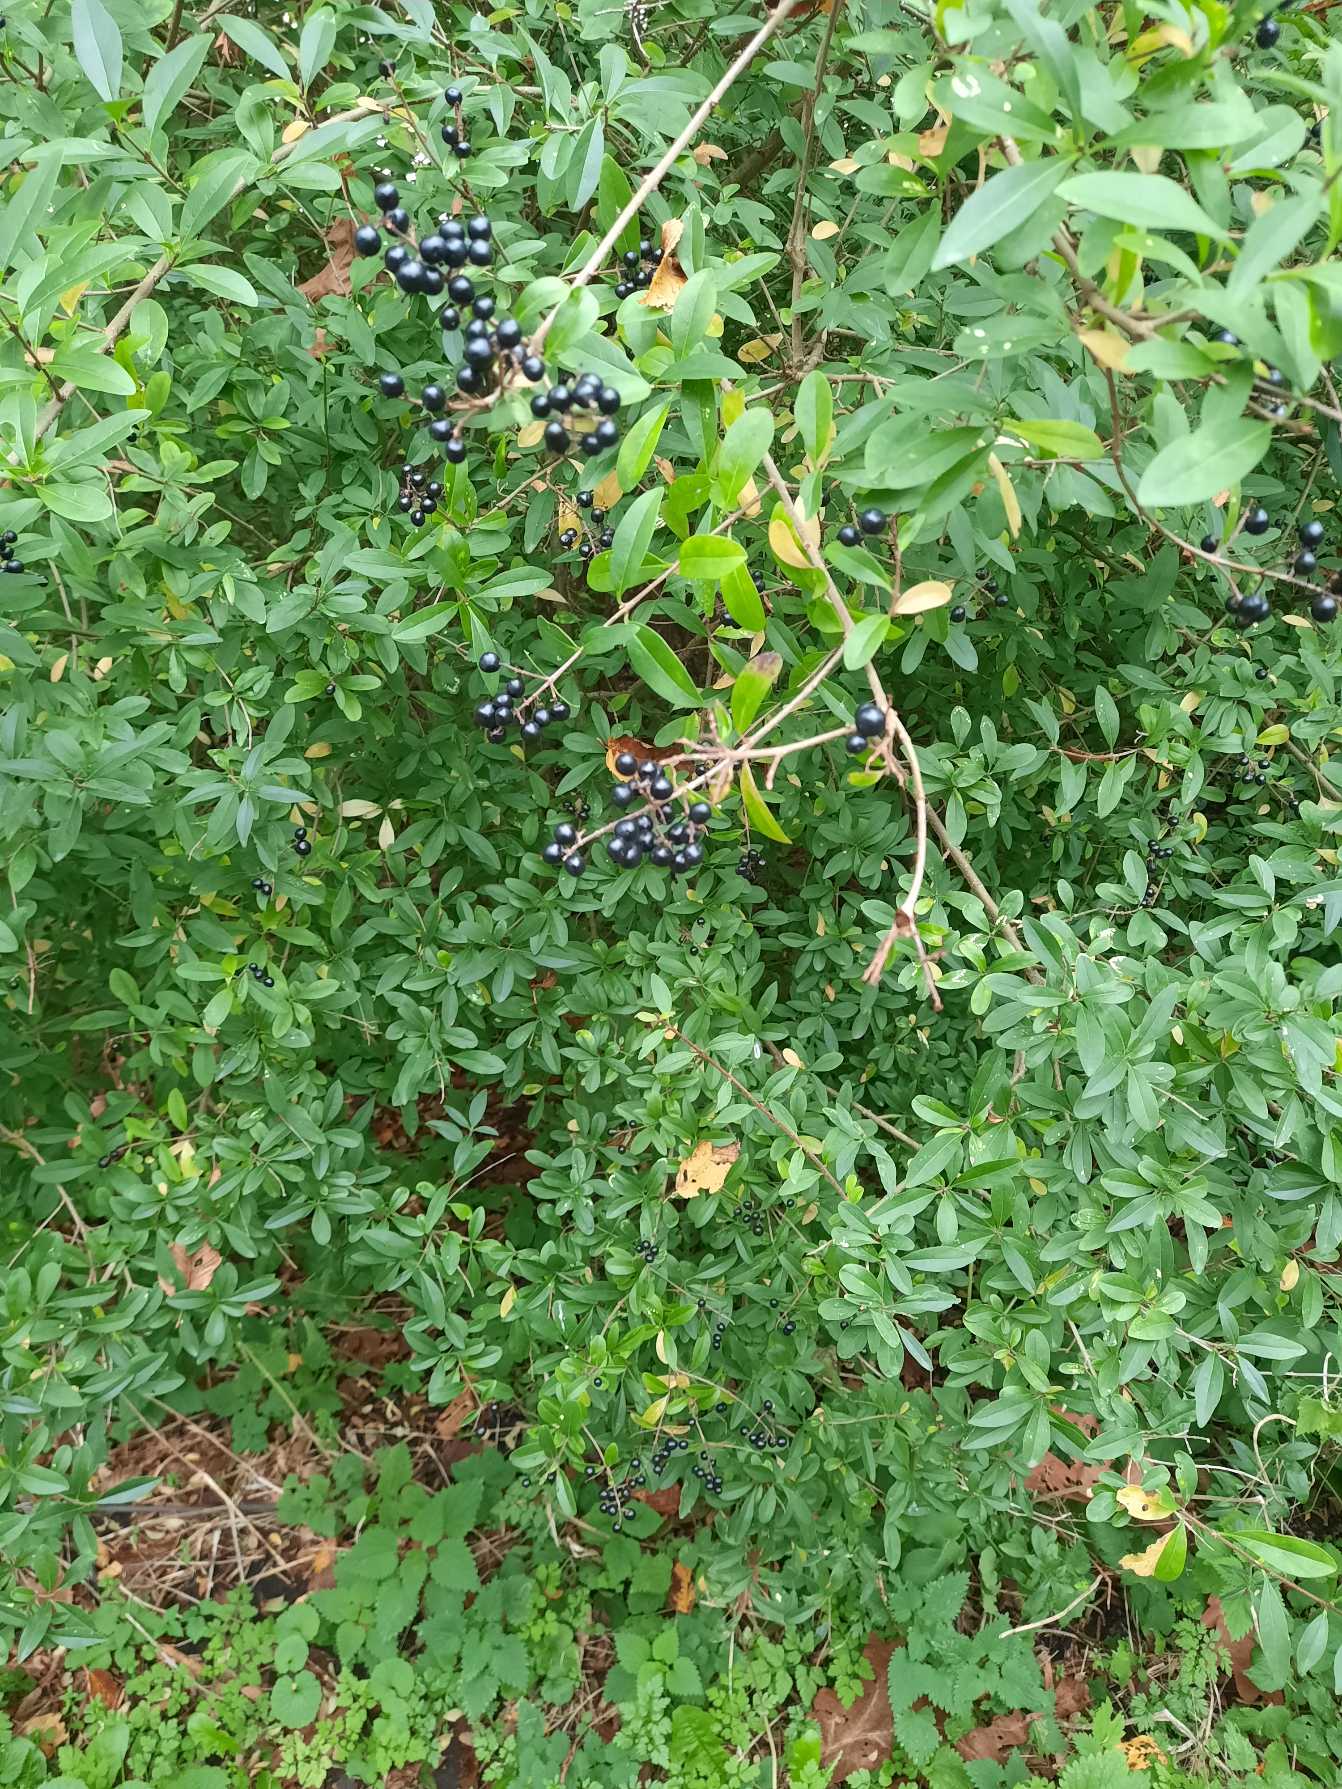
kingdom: Plantae
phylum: Tracheophyta
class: Magnoliopsida
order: Lamiales
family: Oleaceae
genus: Ligustrum
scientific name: Ligustrum vulgare
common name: Liguster
